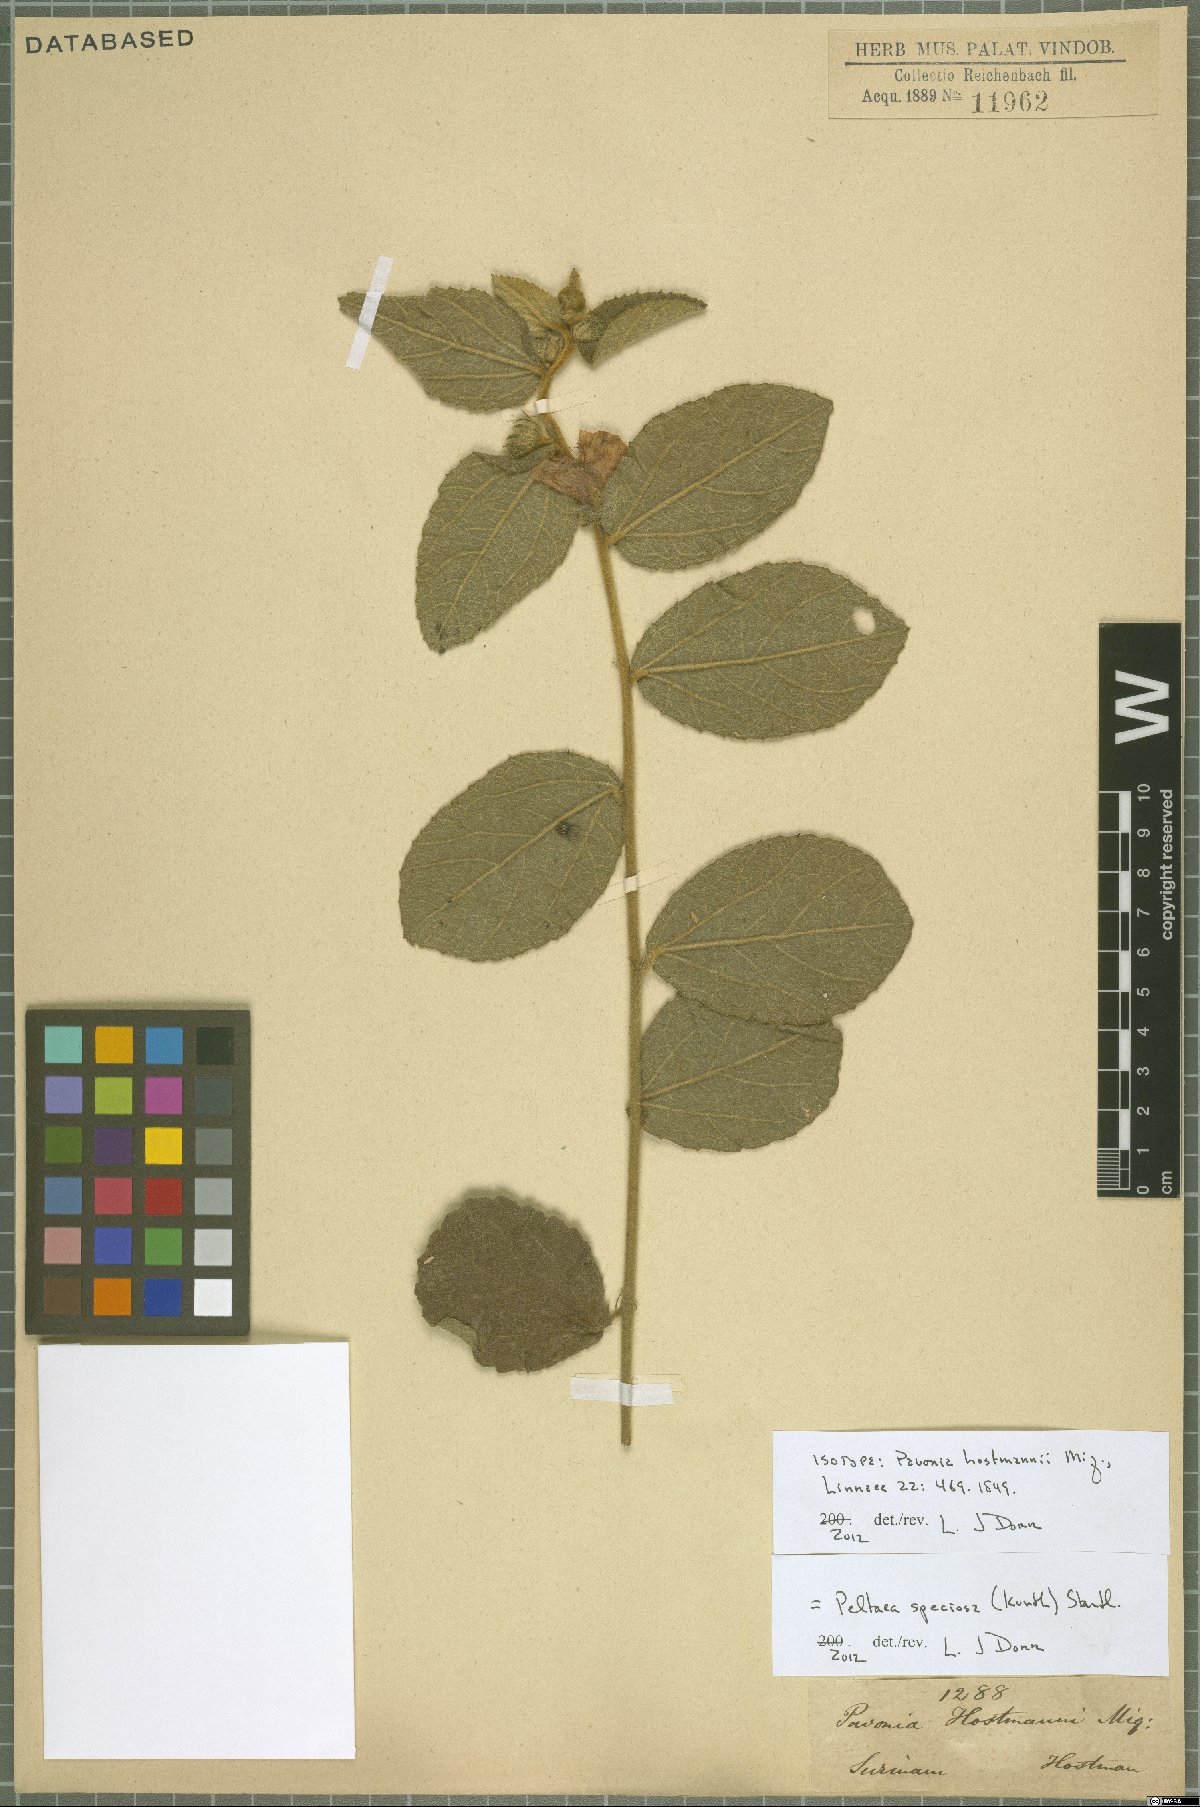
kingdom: Plantae
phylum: Tracheophyta
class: Magnoliopsida
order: Malvales
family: Malvaceae
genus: Peltaea
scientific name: Peltaea speciosa
